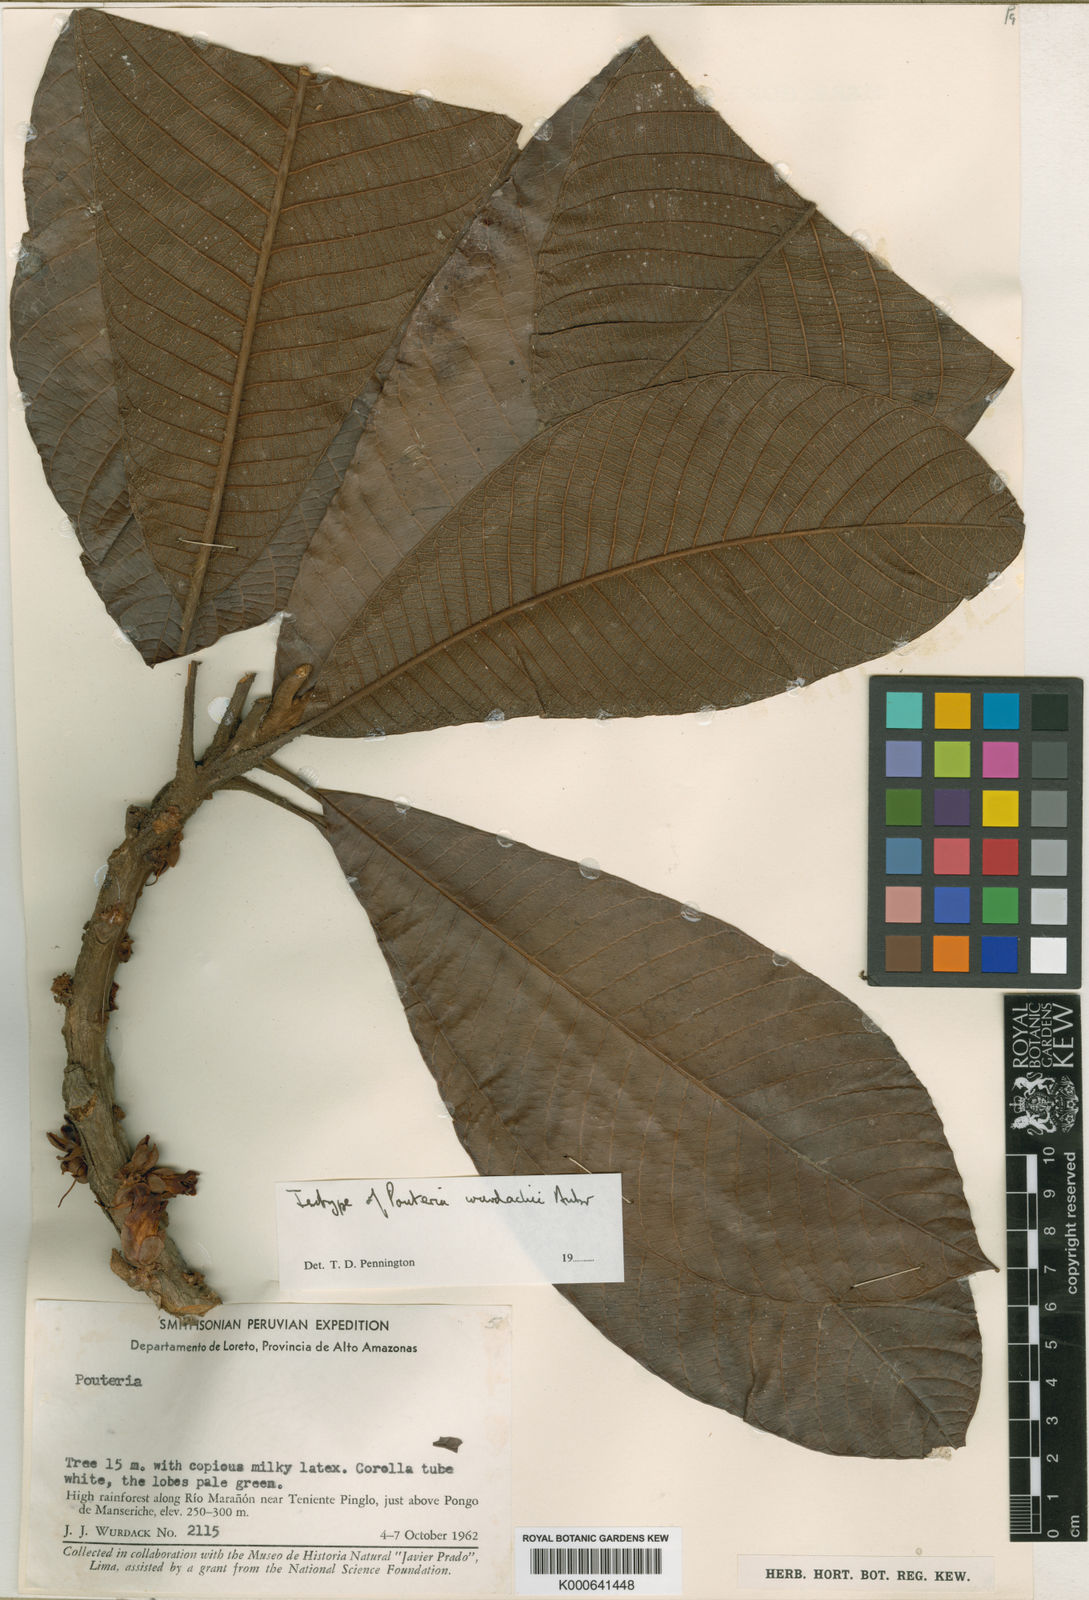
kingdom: Plantae
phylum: Tracheophyta
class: Magnoliopsida
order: Ericales
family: Sapotaceae
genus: Pouteria
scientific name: Pouteria torta
